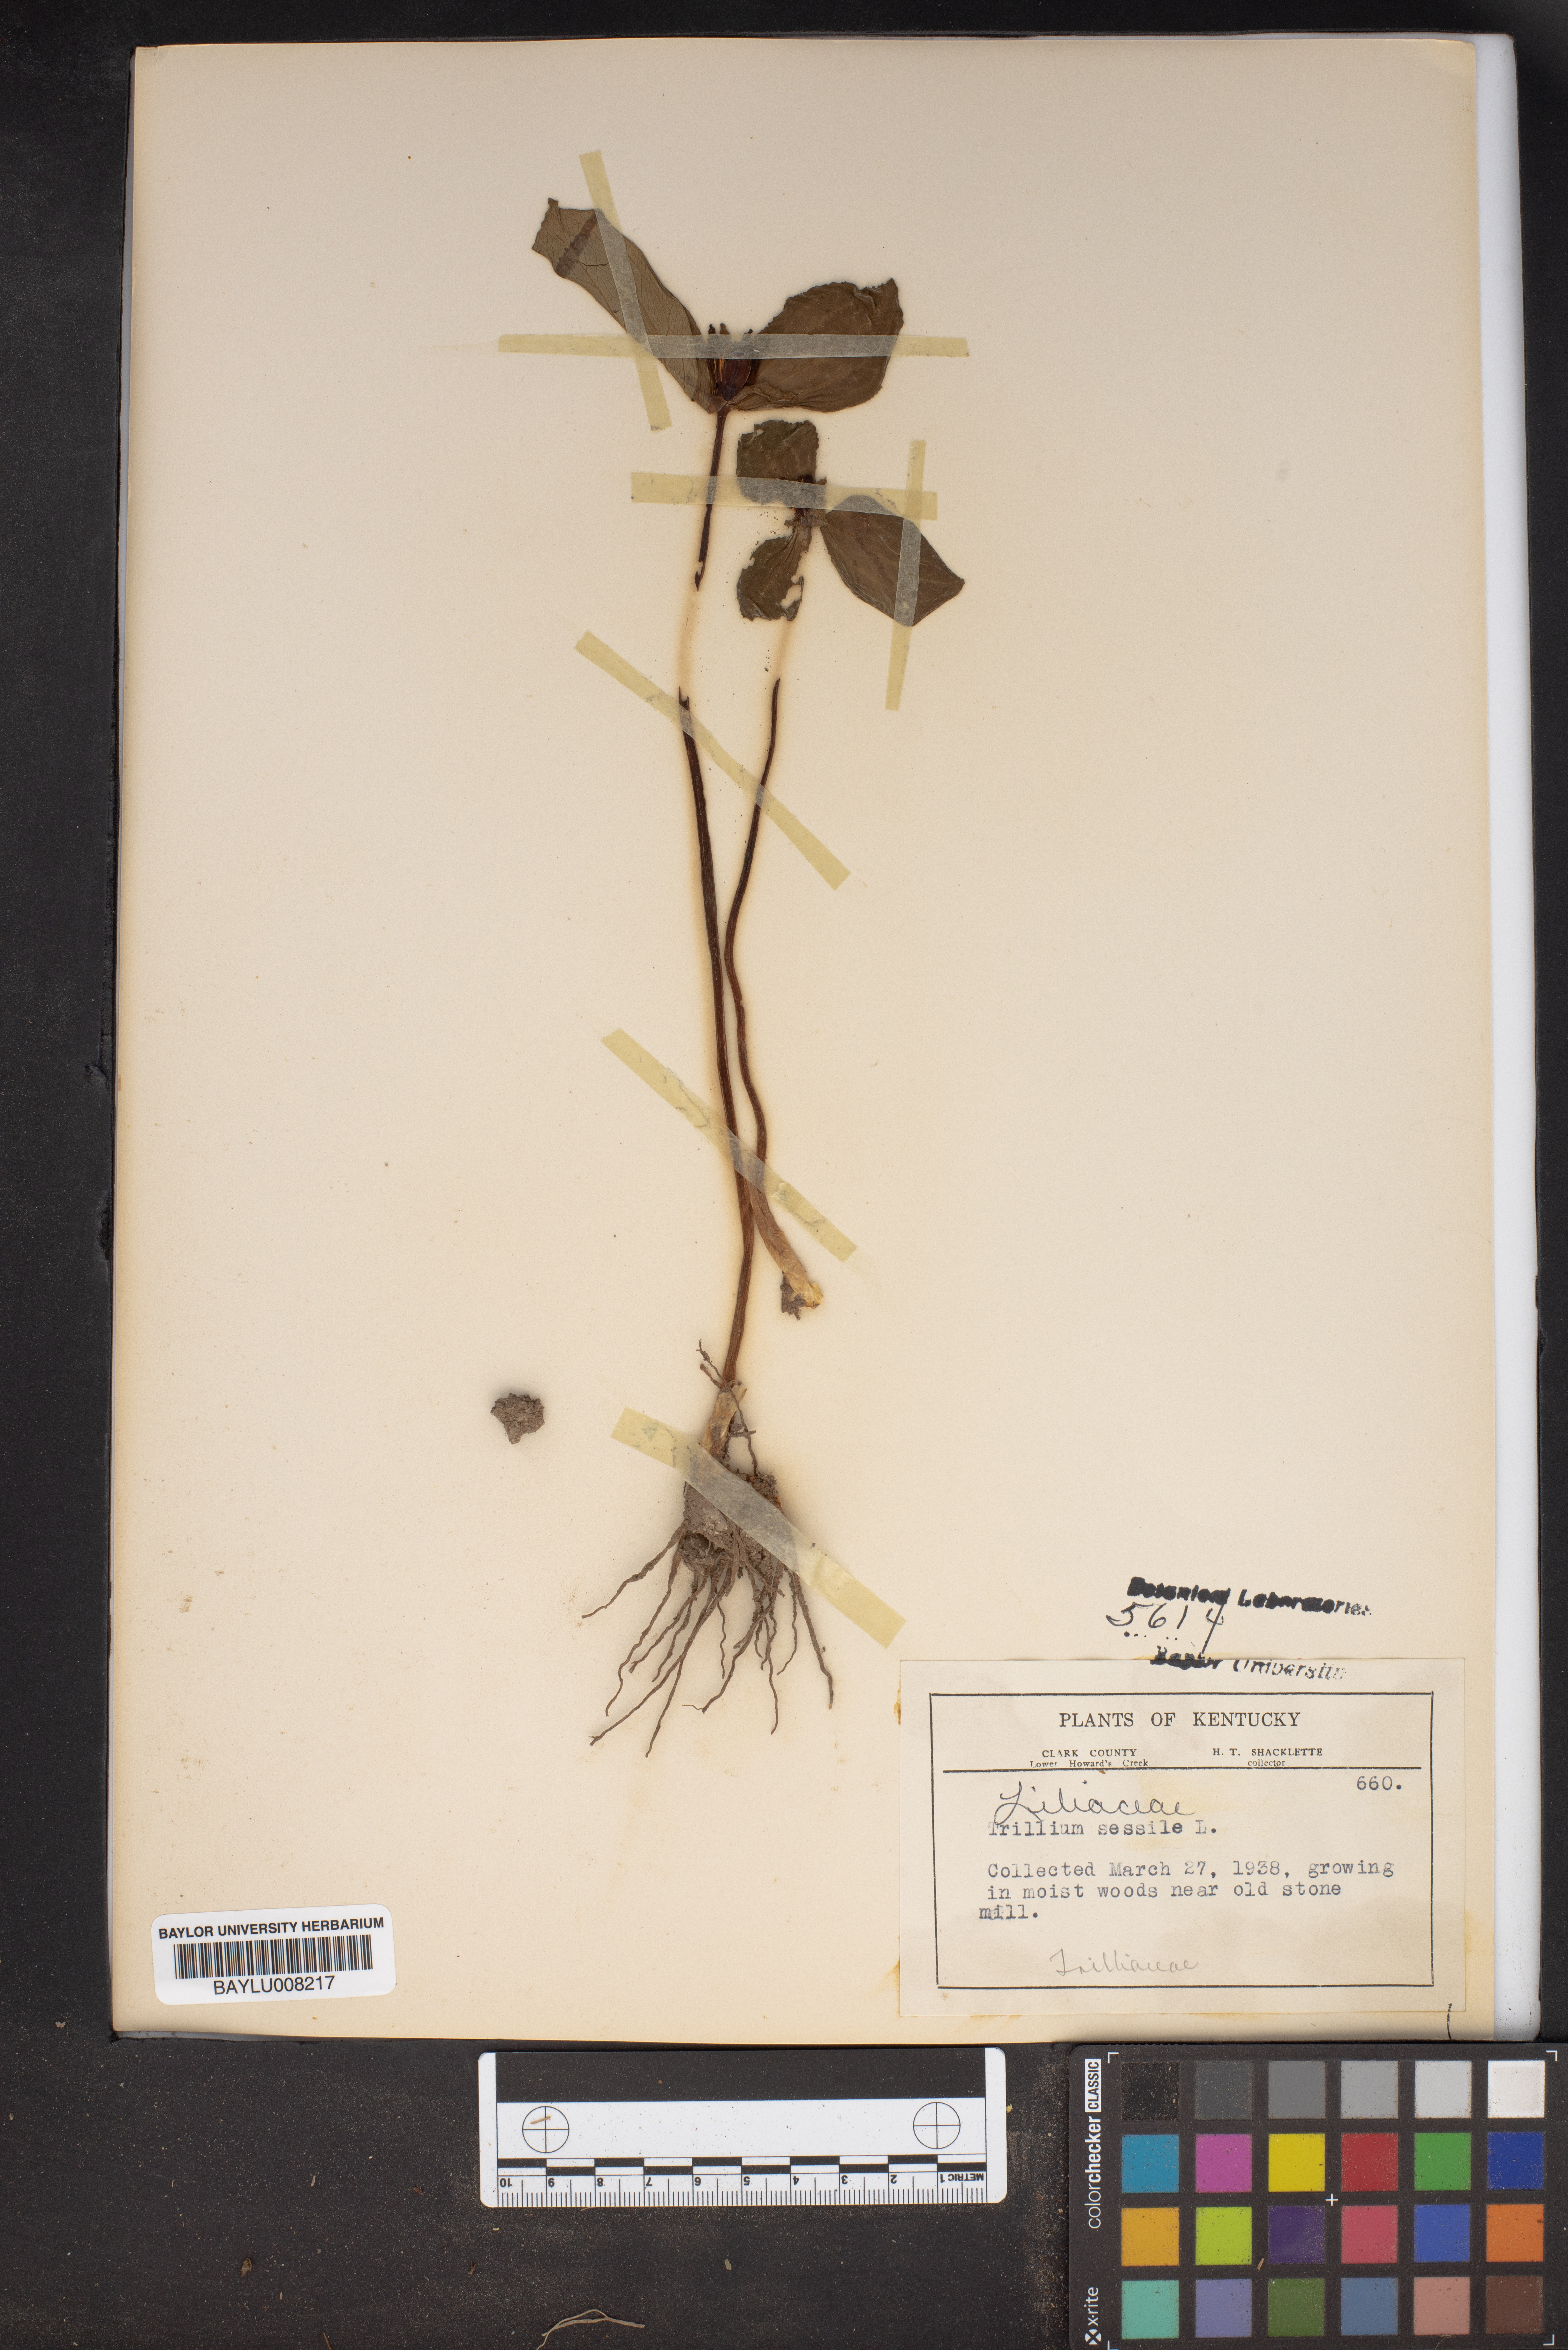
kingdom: Plantae
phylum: Tracheophyta
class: Liliopsida
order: Liliales
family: Melanthiaceae
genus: Trillium
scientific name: Trillium sessile
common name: Sessile trillium
